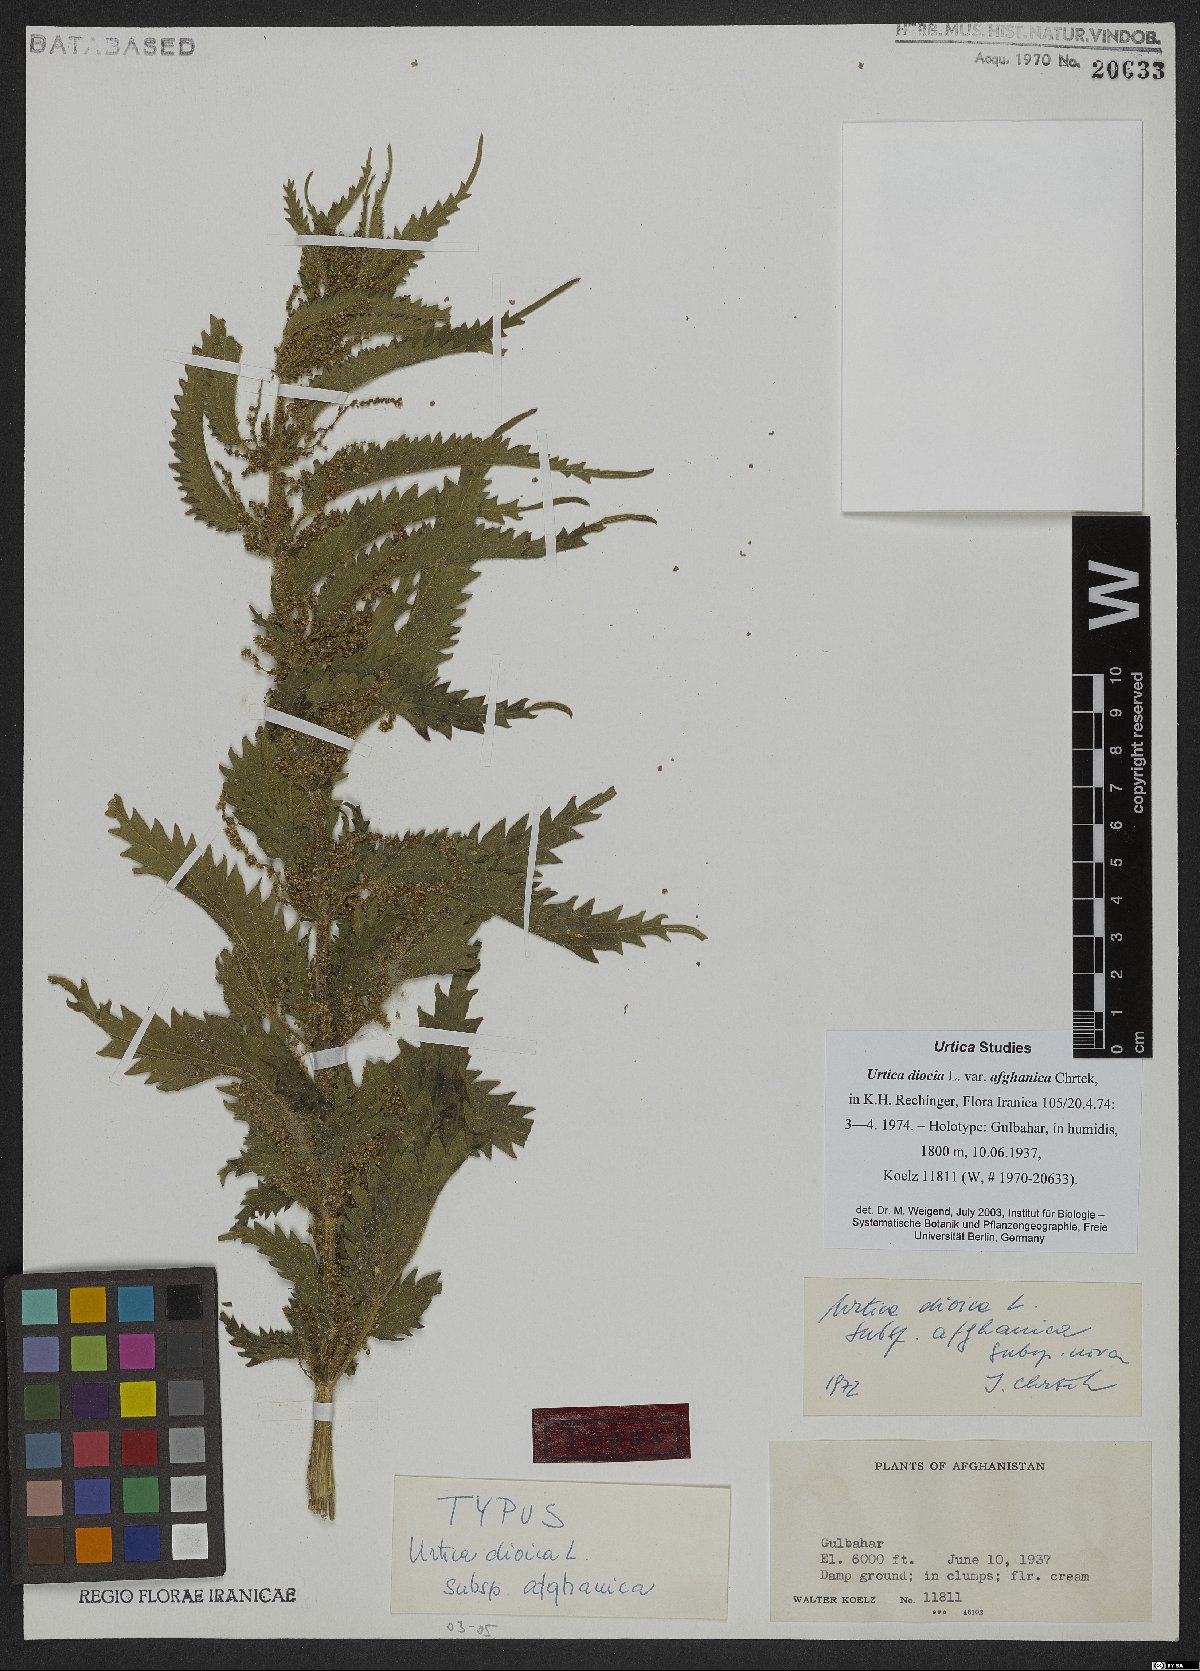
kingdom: Plantae
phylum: Tracheophyta
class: Magnoliopsida
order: Rosales
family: Urticaceae
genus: Urtica
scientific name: Urtica dioica
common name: Common nettle
